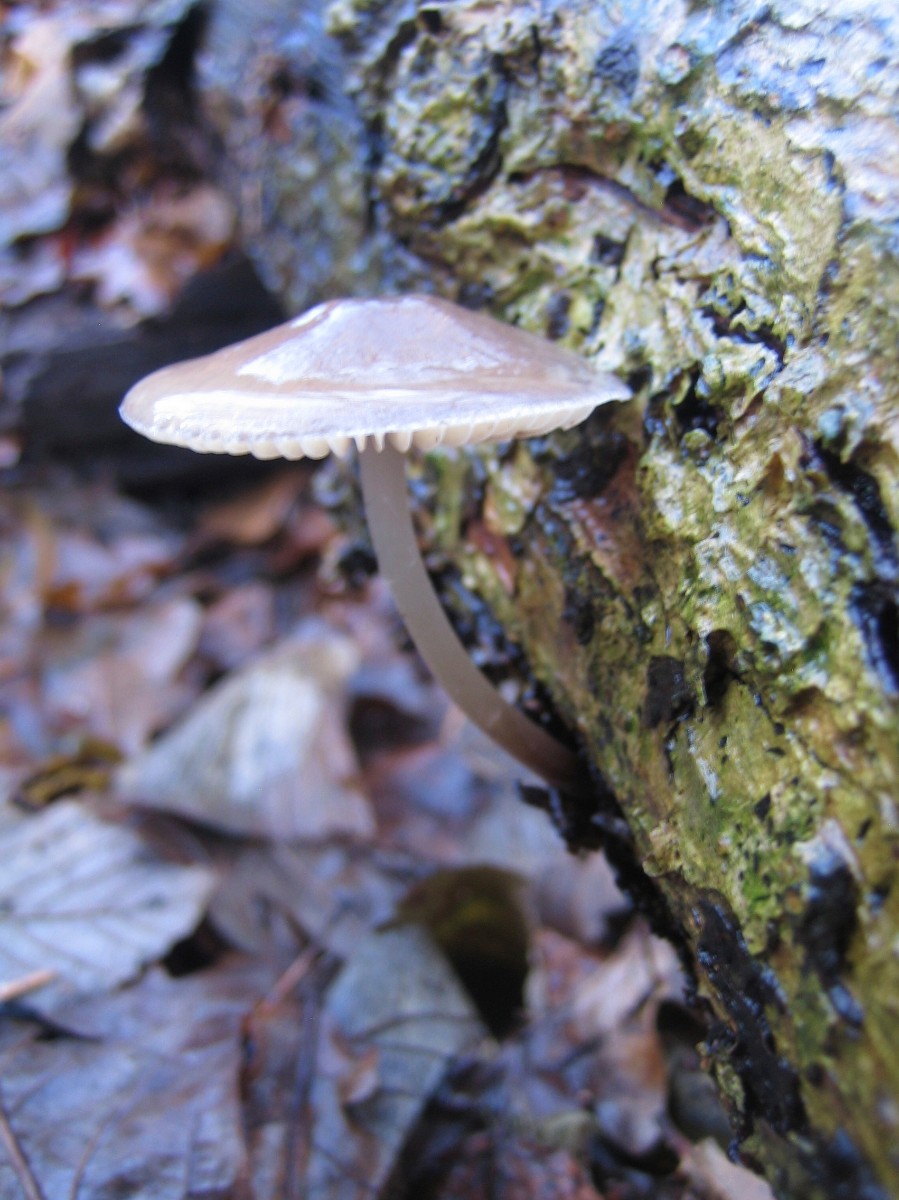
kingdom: Fungi
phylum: Basidiomycota
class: Agaricomycetes
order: Agaricales
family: Mycenaceae
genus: Mycena
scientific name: Mycena galericulata
